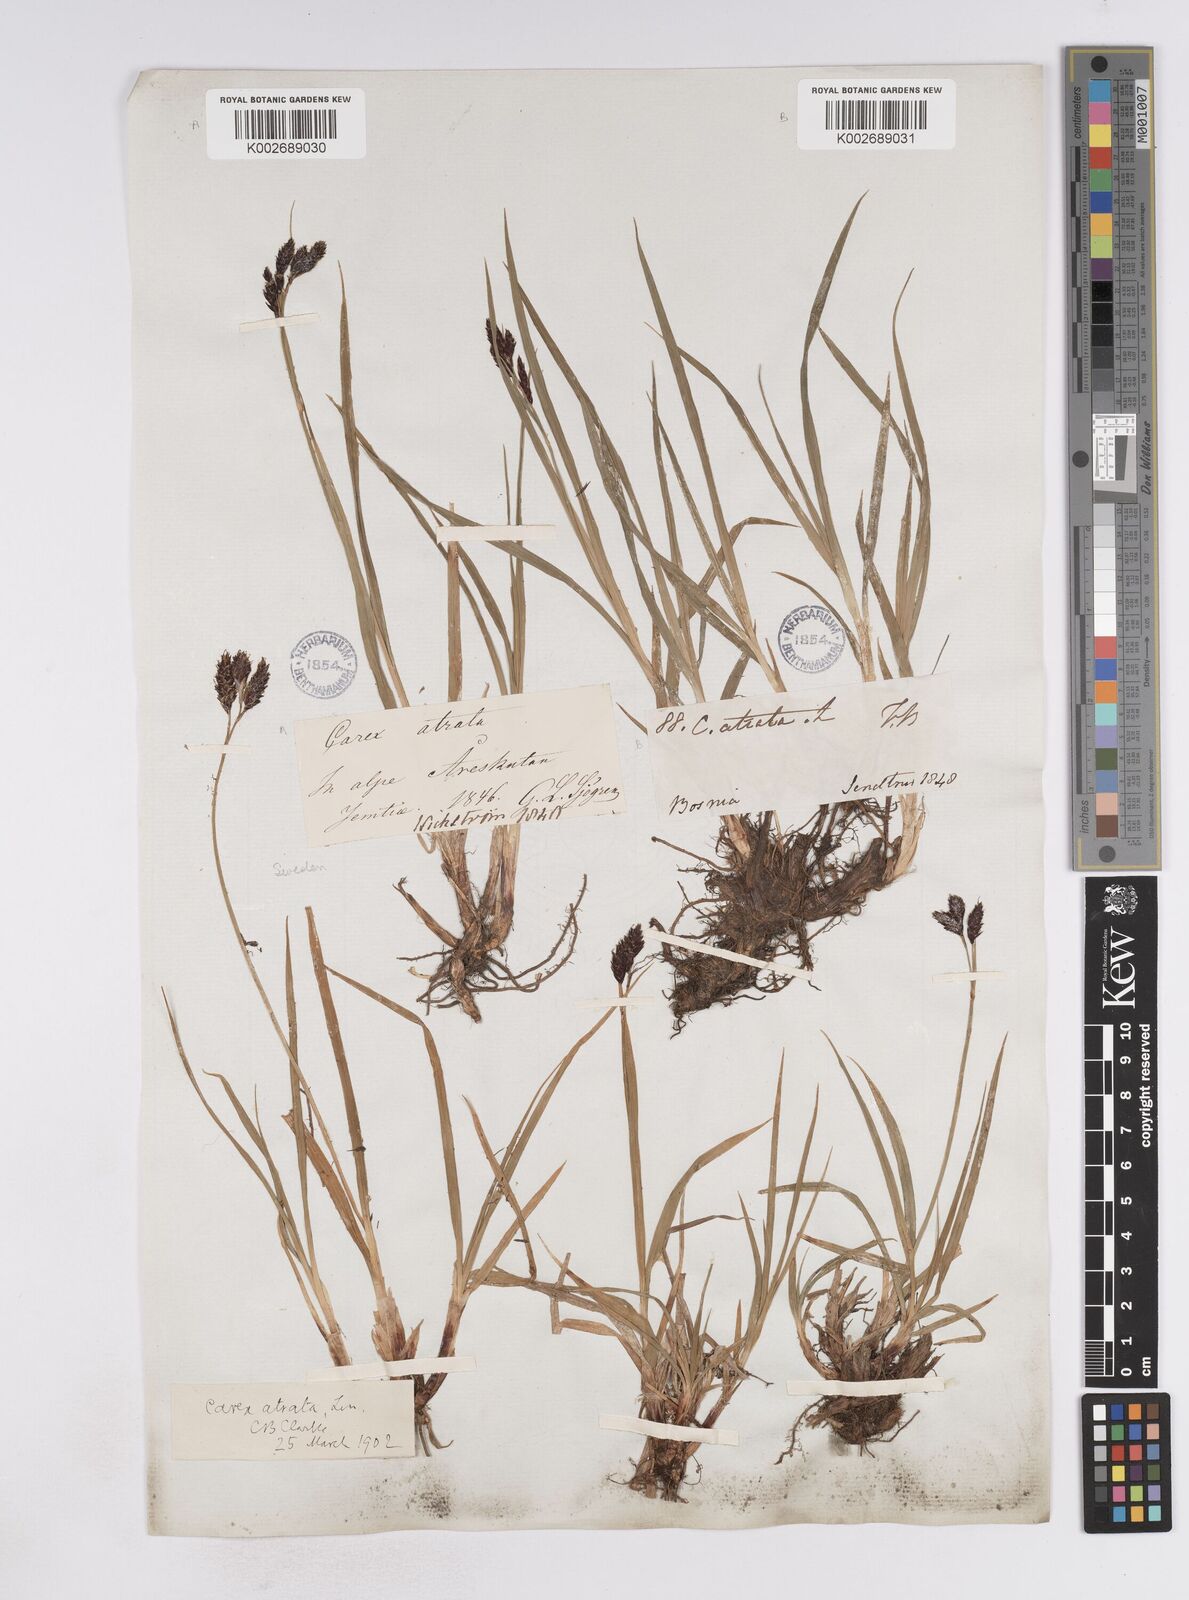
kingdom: Plantae
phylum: Tracheophyta
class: Liliopsida
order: Poales
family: Cyperaceae
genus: Carex
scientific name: Carex atrata
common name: Black alpine sedge
